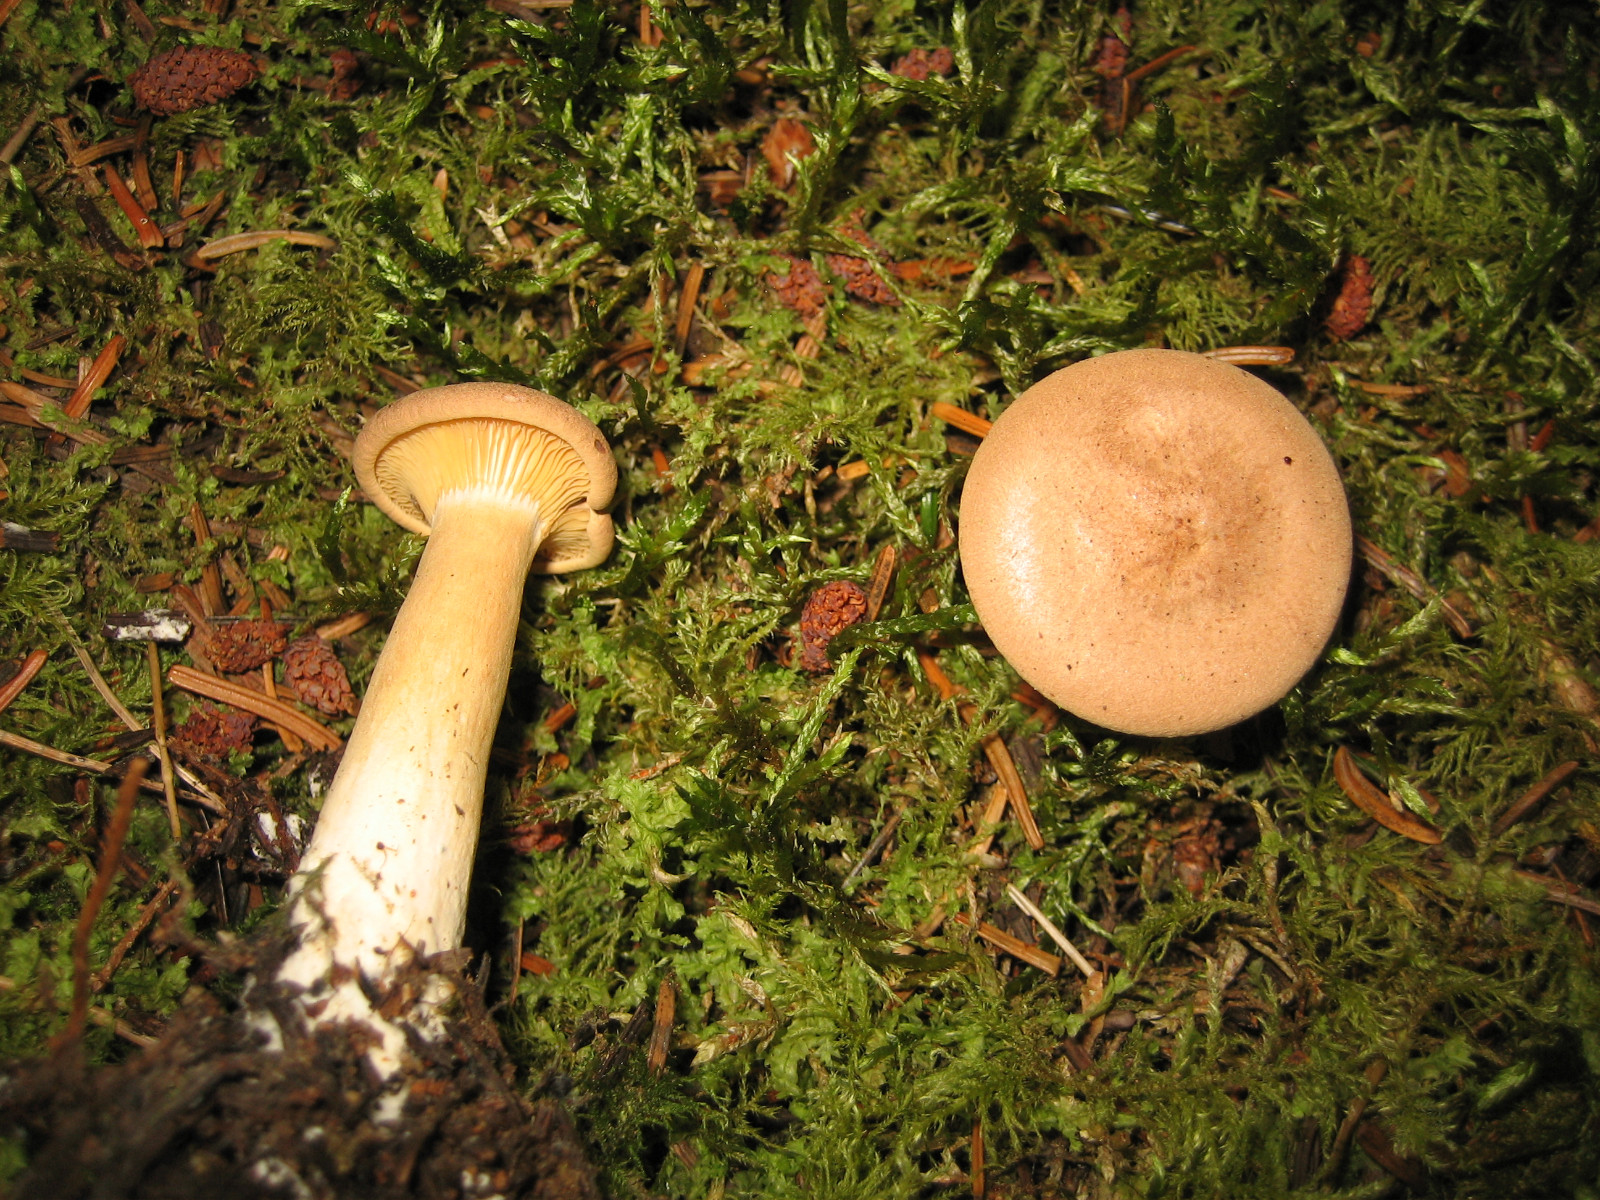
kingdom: Fungi
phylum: Basidiomycota
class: Agaricomycetes
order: Russulales
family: Russulaceae
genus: Lactarius
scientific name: Lactarius helvus
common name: mose-mælkehat
